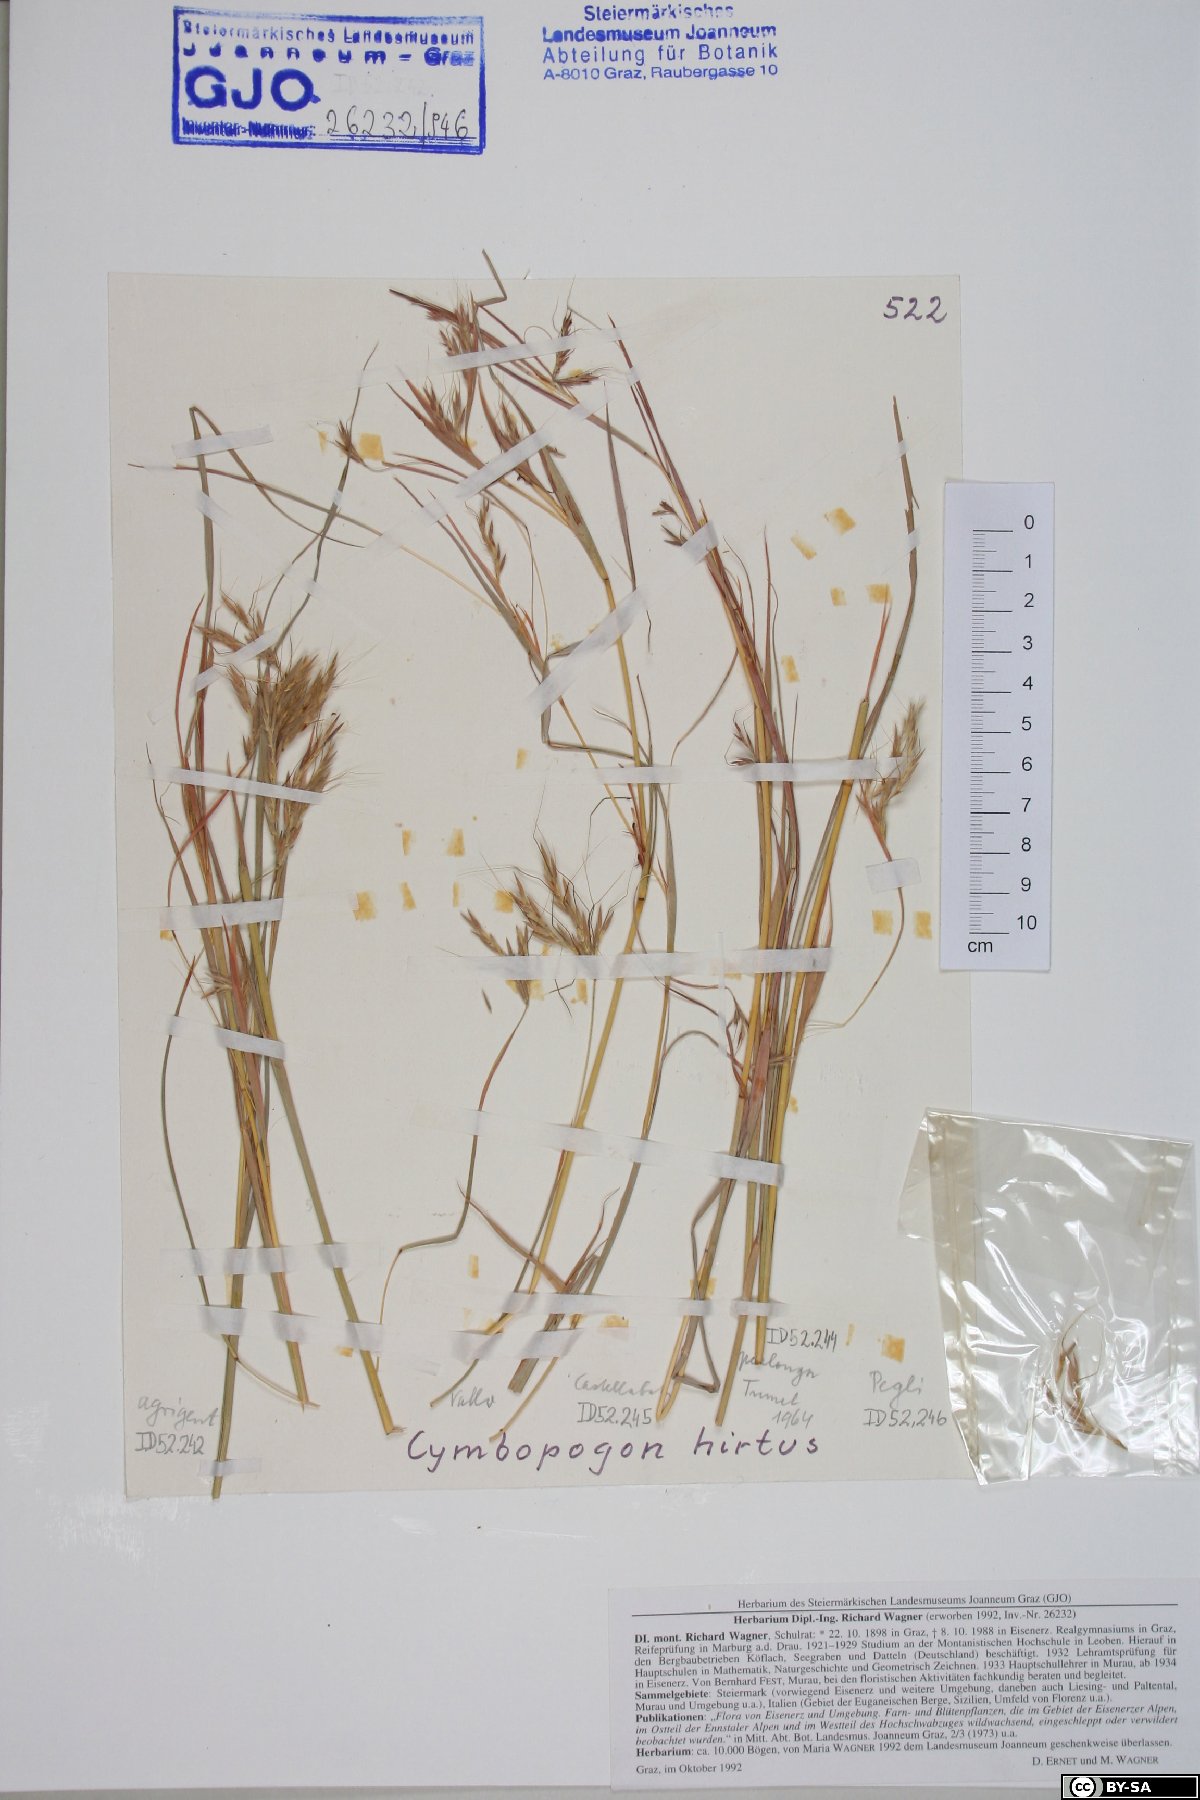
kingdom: Plantae
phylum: Tracheophyta
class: Liliopsida
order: Poales
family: Poaceae
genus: Hyparrhenia
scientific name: Hyparrhenia hirta
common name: Thatching grass
